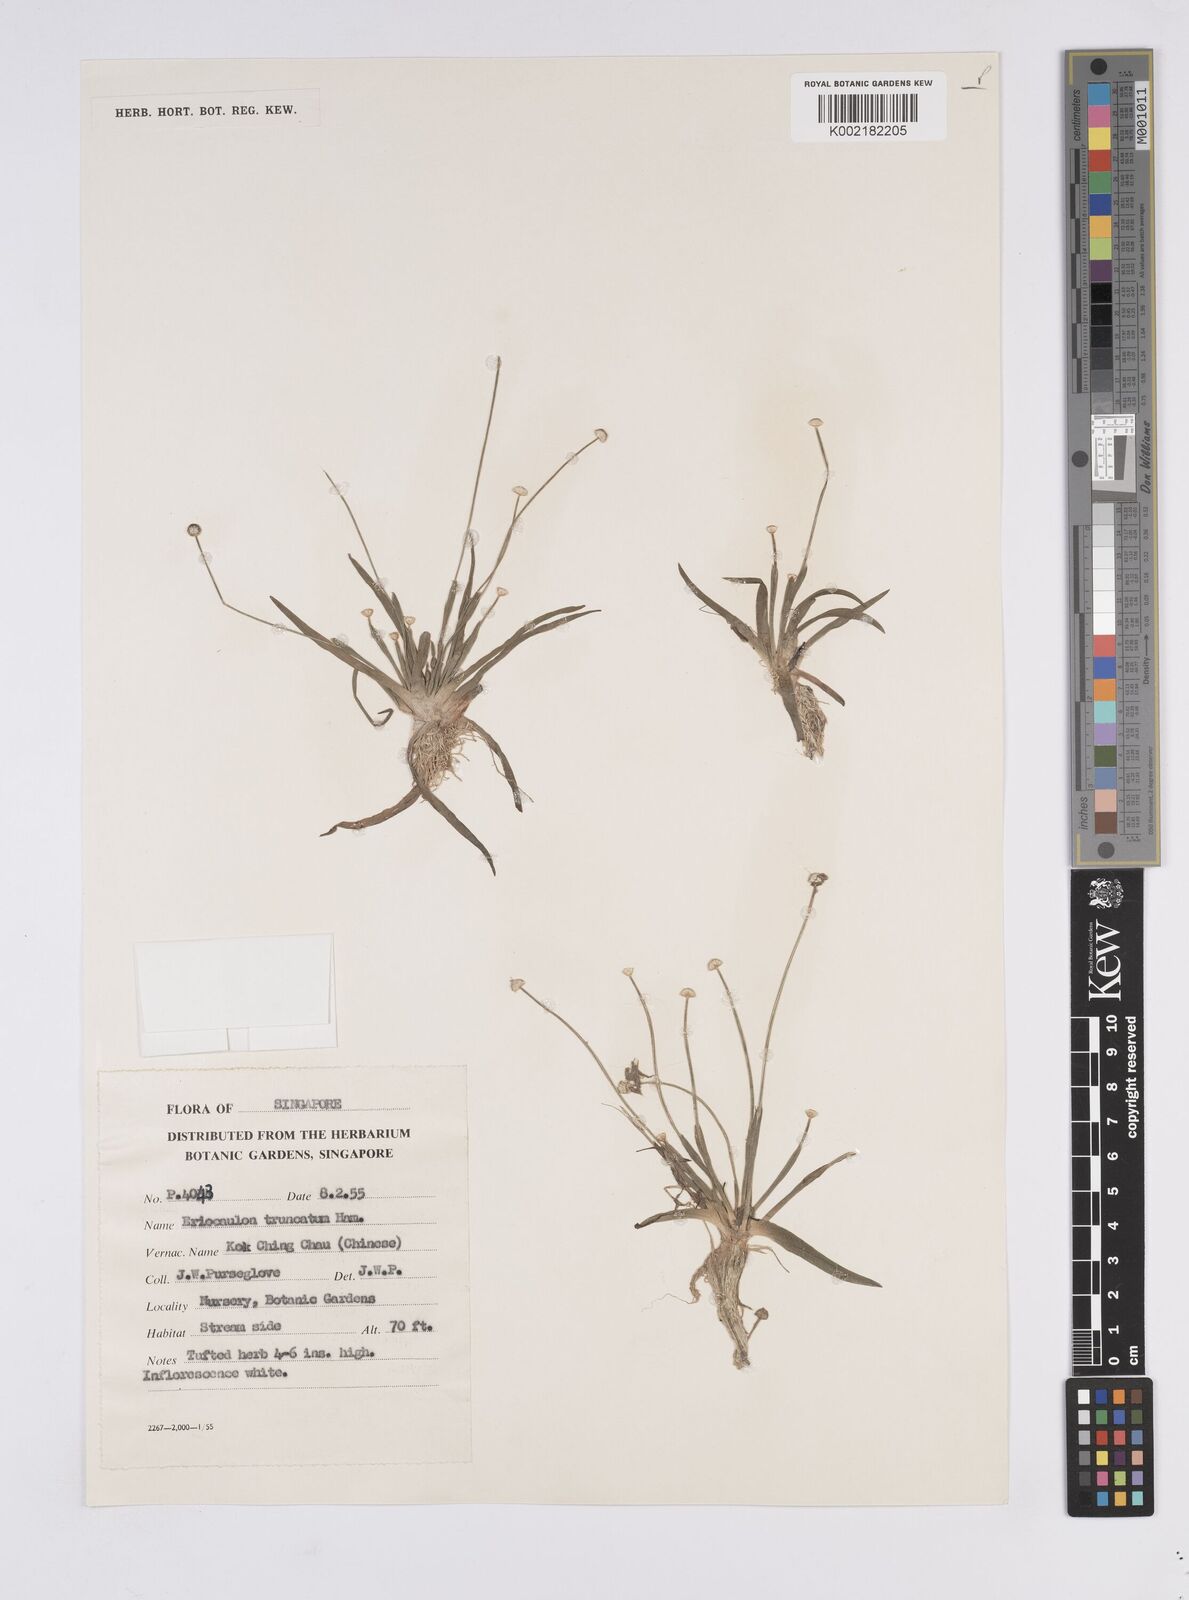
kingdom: Plantae
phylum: Tracheophyta
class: Liliopsida
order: Poales
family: Eriocaulaceae
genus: Eriocaulon
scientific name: Eriocaulon truncatum
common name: Short pipe-wort
